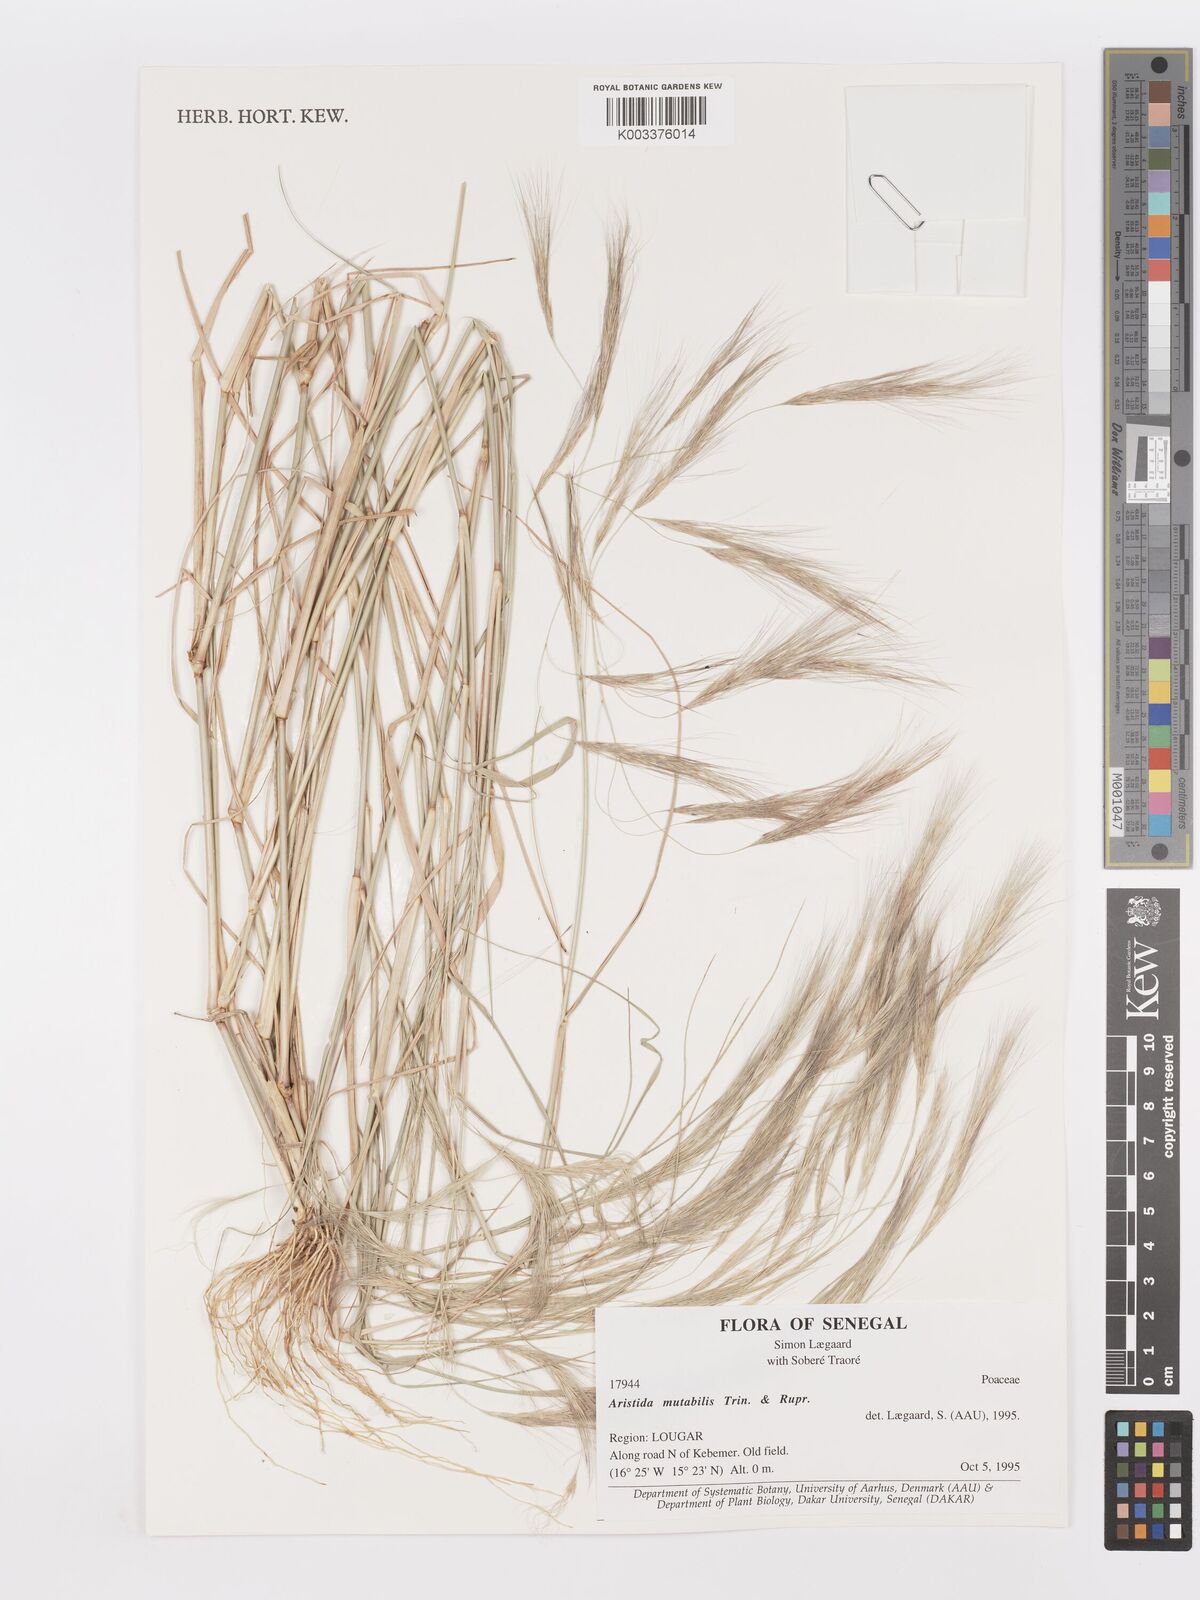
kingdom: Plantae
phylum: Tracheophyta
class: Liliopsida
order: Poales
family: Poaceae
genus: Aristida
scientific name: Aristida mutabilis
